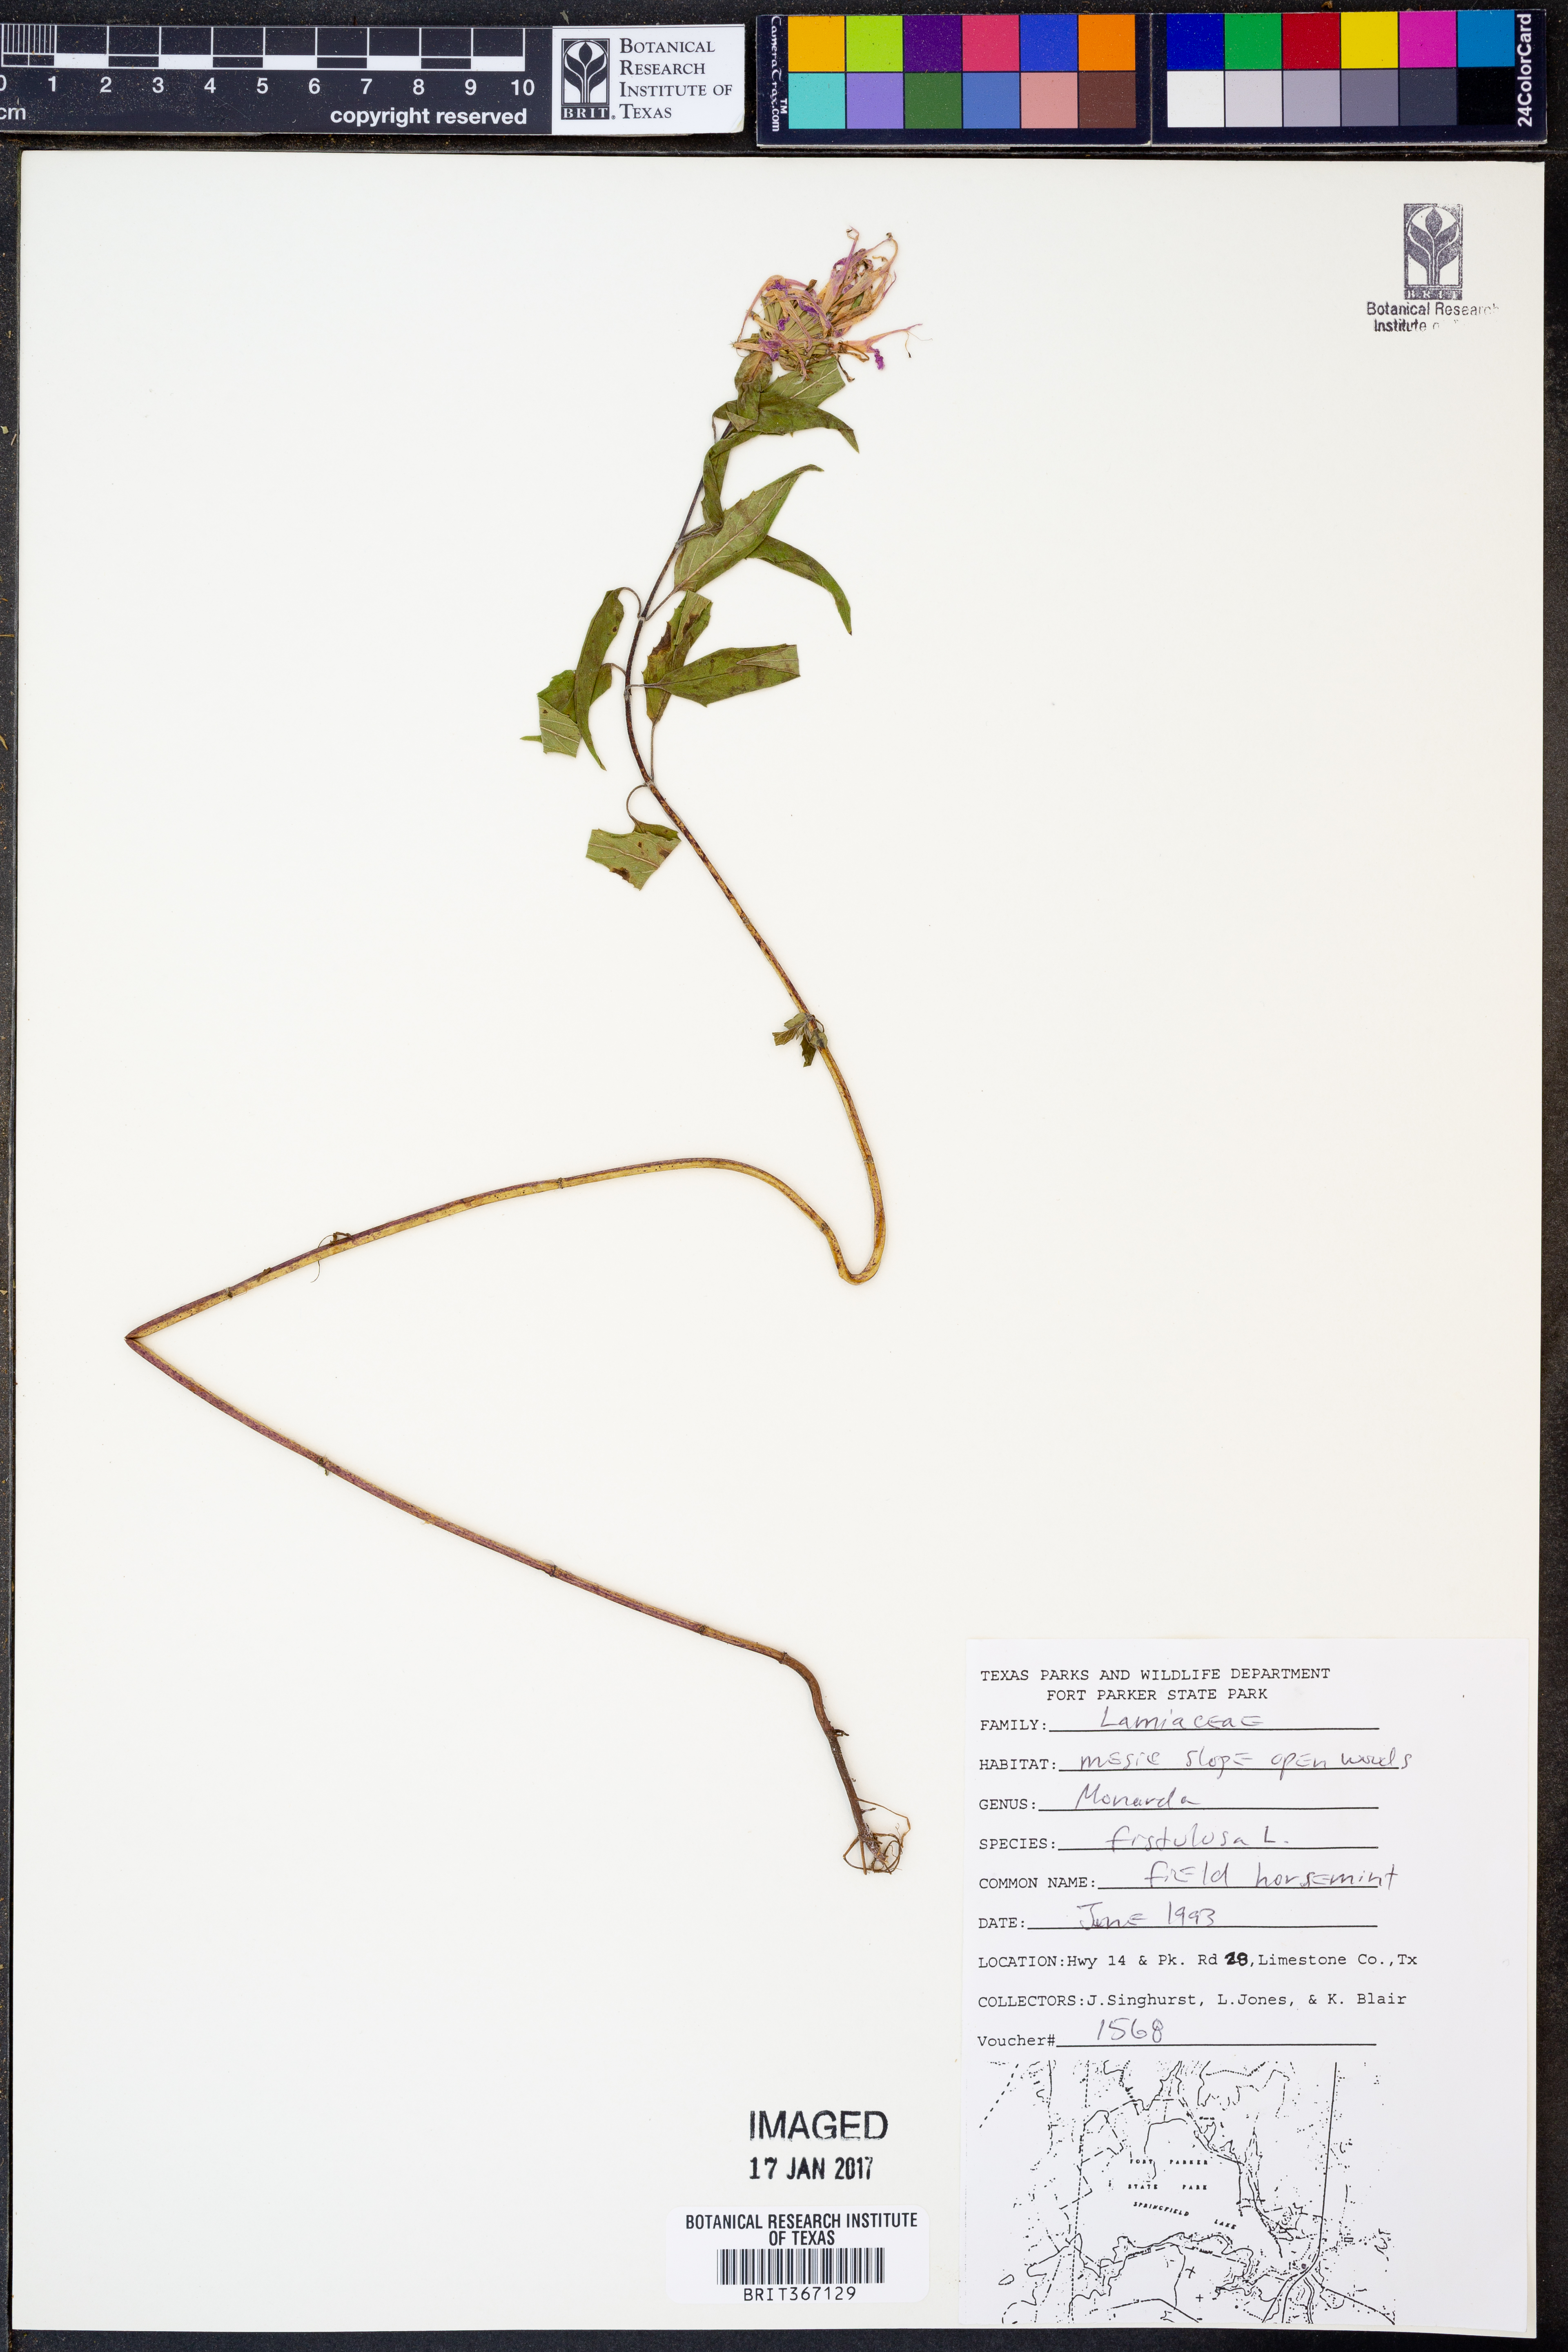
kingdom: Plantae
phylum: Tracheophyta
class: Magnoliopsida
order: Lamiales
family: Lamiaceae
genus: Monarda
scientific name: Monarda fistulosa
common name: Purple beebalm
